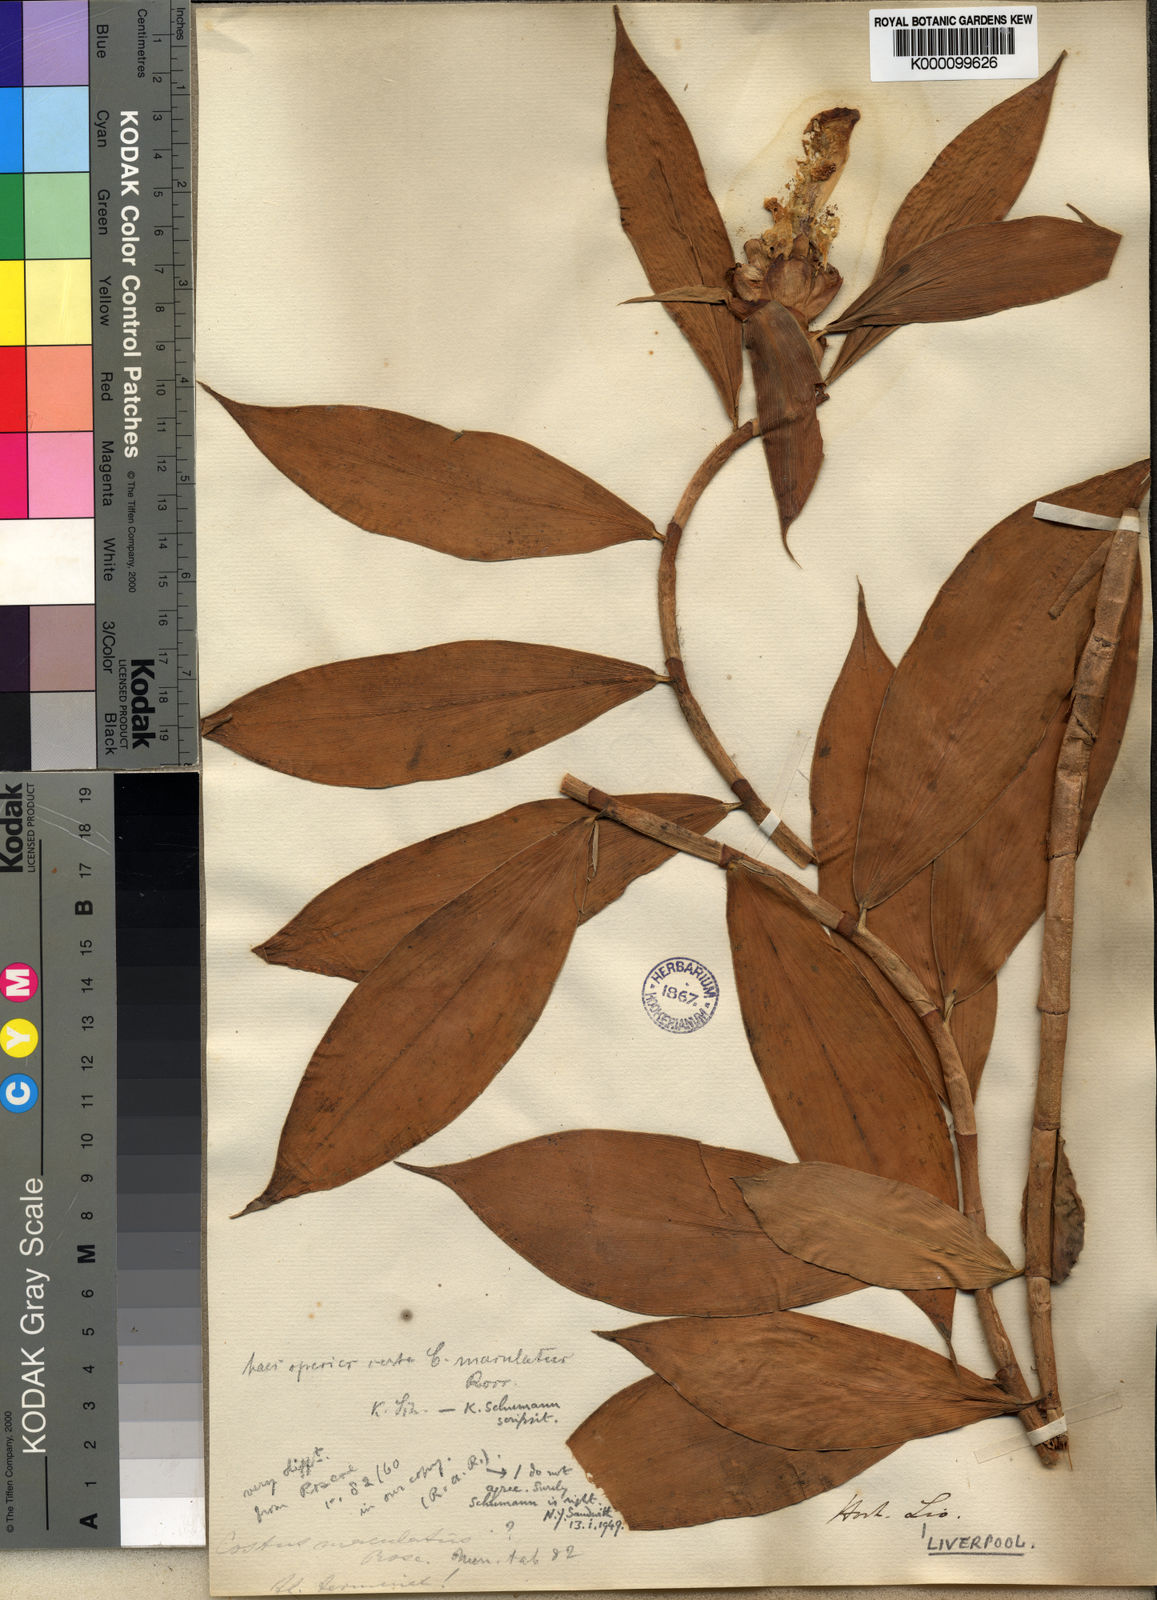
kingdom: Plantae
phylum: Tracheophyta
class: Liliopsida
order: Zingiberales
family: Costaceae
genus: Costus
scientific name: Costus afer
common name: Spiral-ginger
